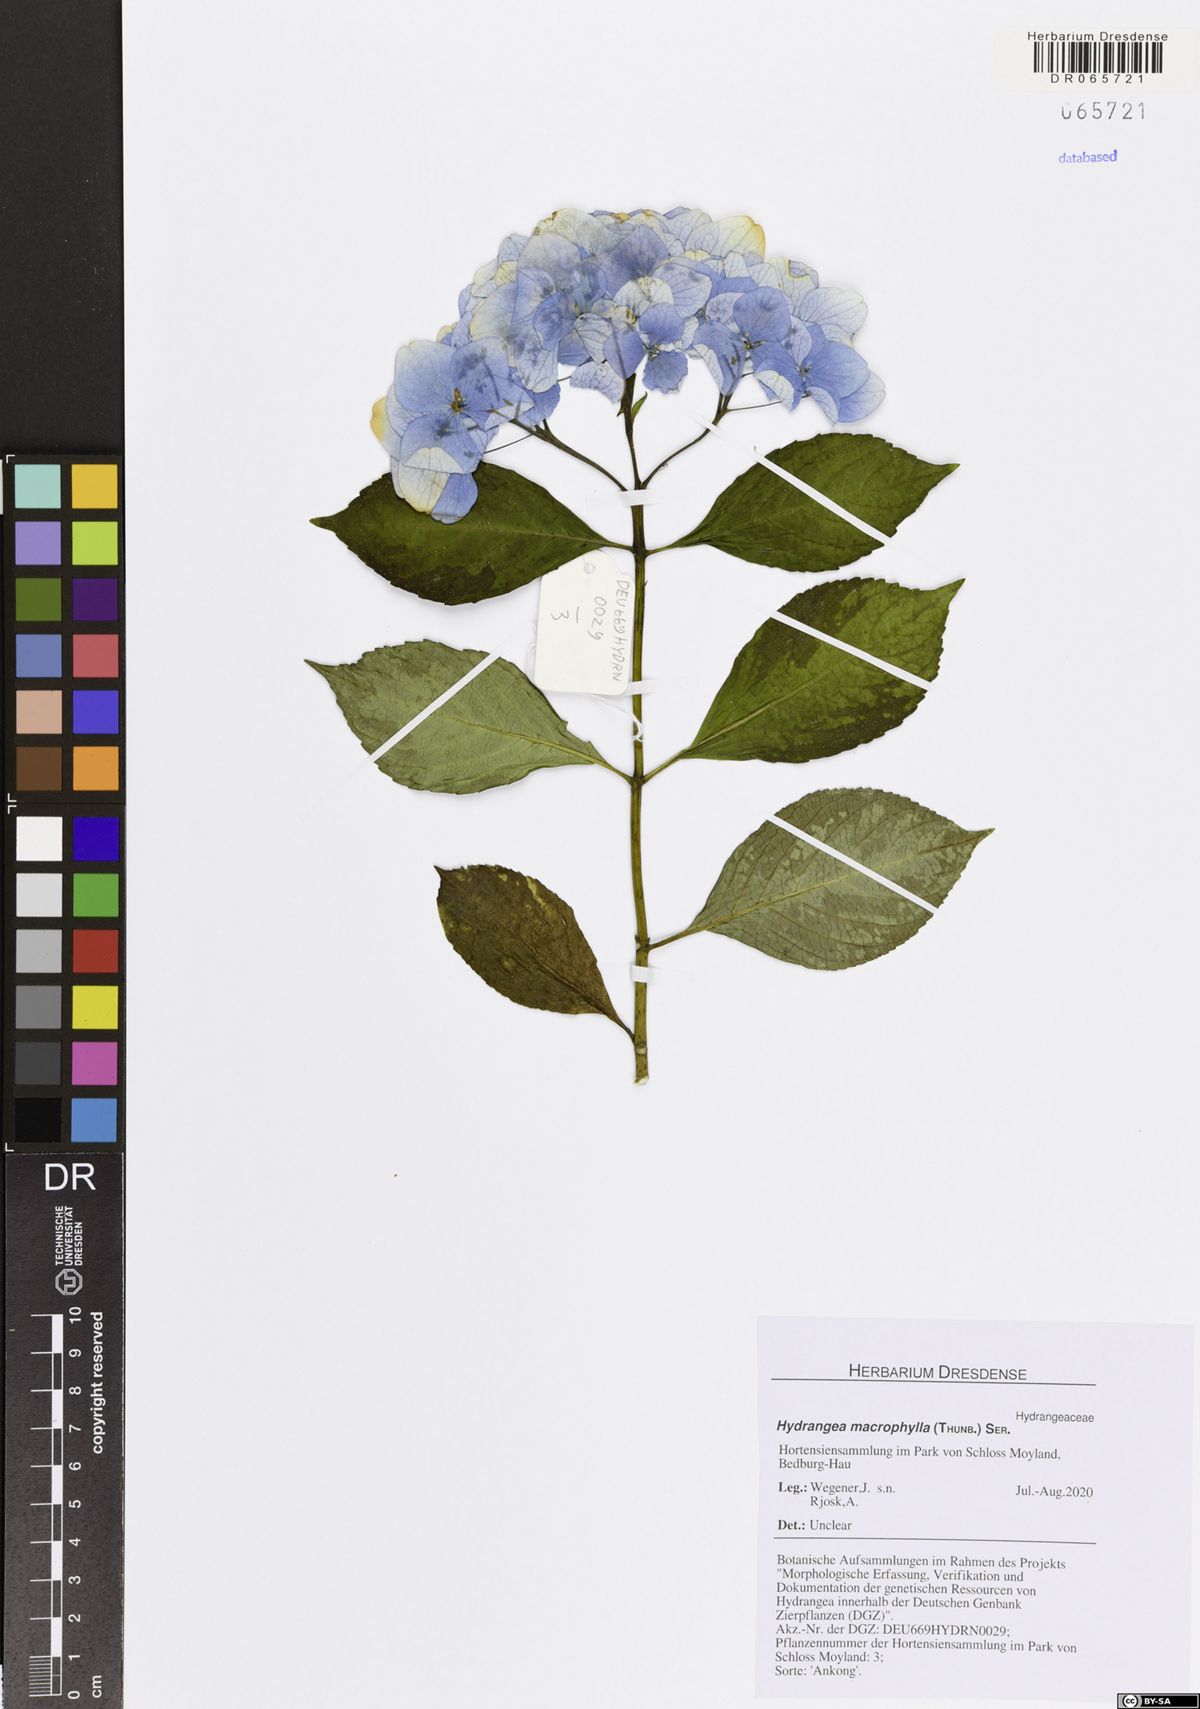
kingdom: Plantae
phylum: Tracheophyta
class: Magnoliopsida
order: Cornales
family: Hydrangeaceae
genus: Hydrangea
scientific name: Hydrangea macrophylla
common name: Hydrangea
